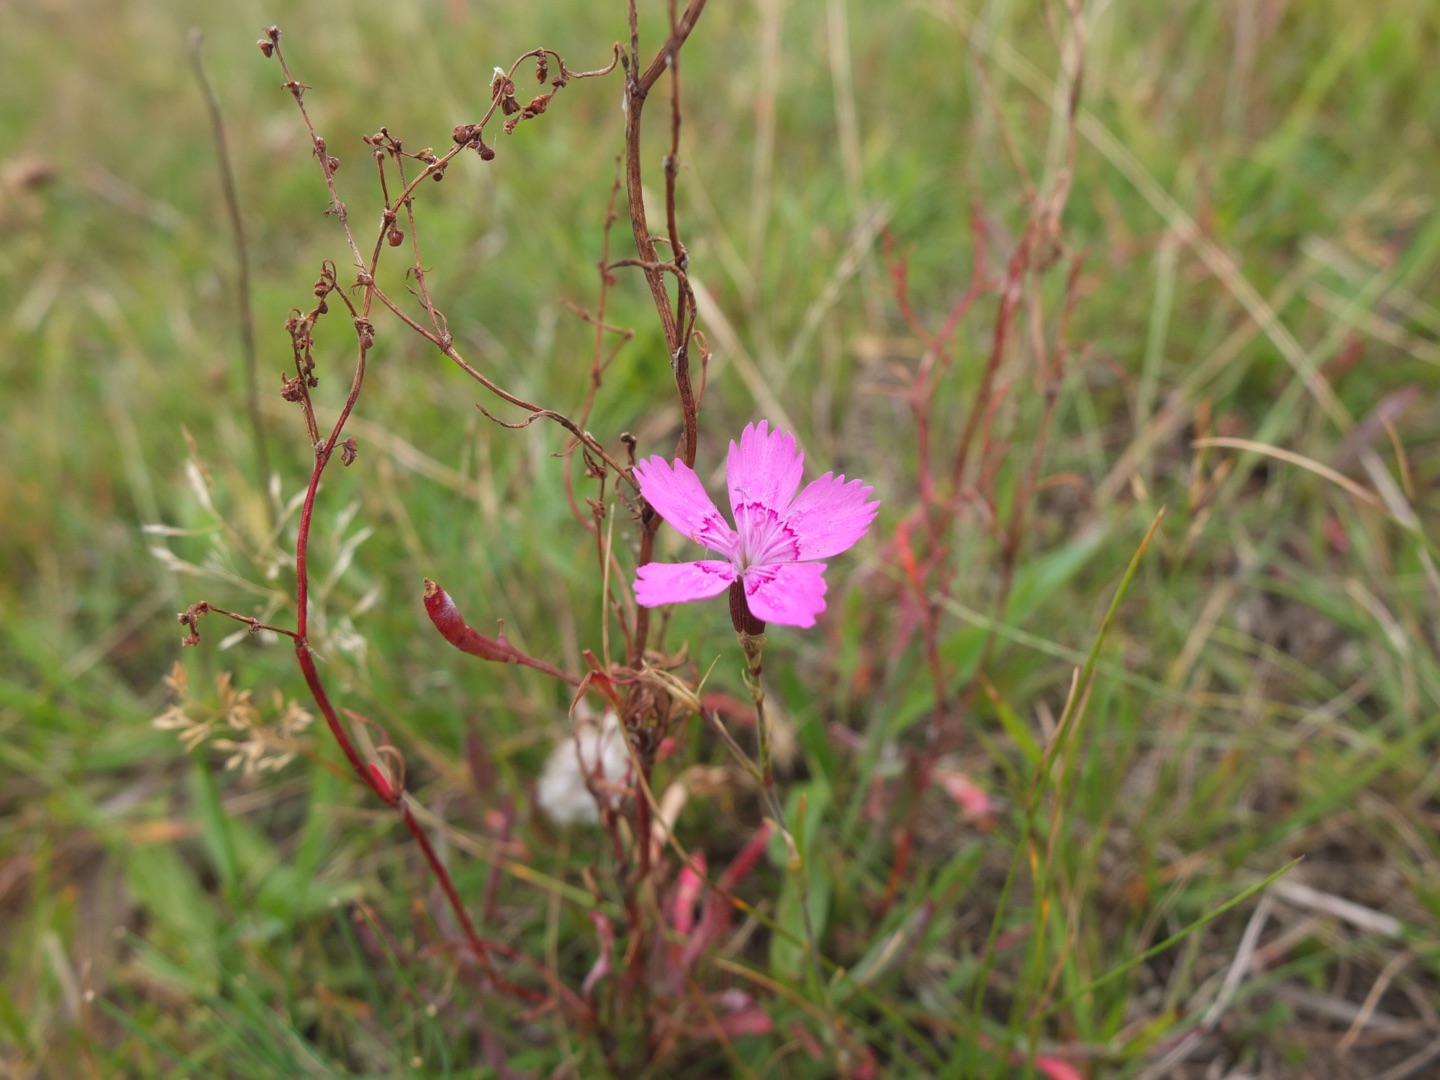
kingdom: Plantae
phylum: Tracheophyta
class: Magnoliopsida
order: Caryophyllales
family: Caryophyllaceae
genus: Dianthus
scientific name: Dianthus deltoides
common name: Bakke-nellike
